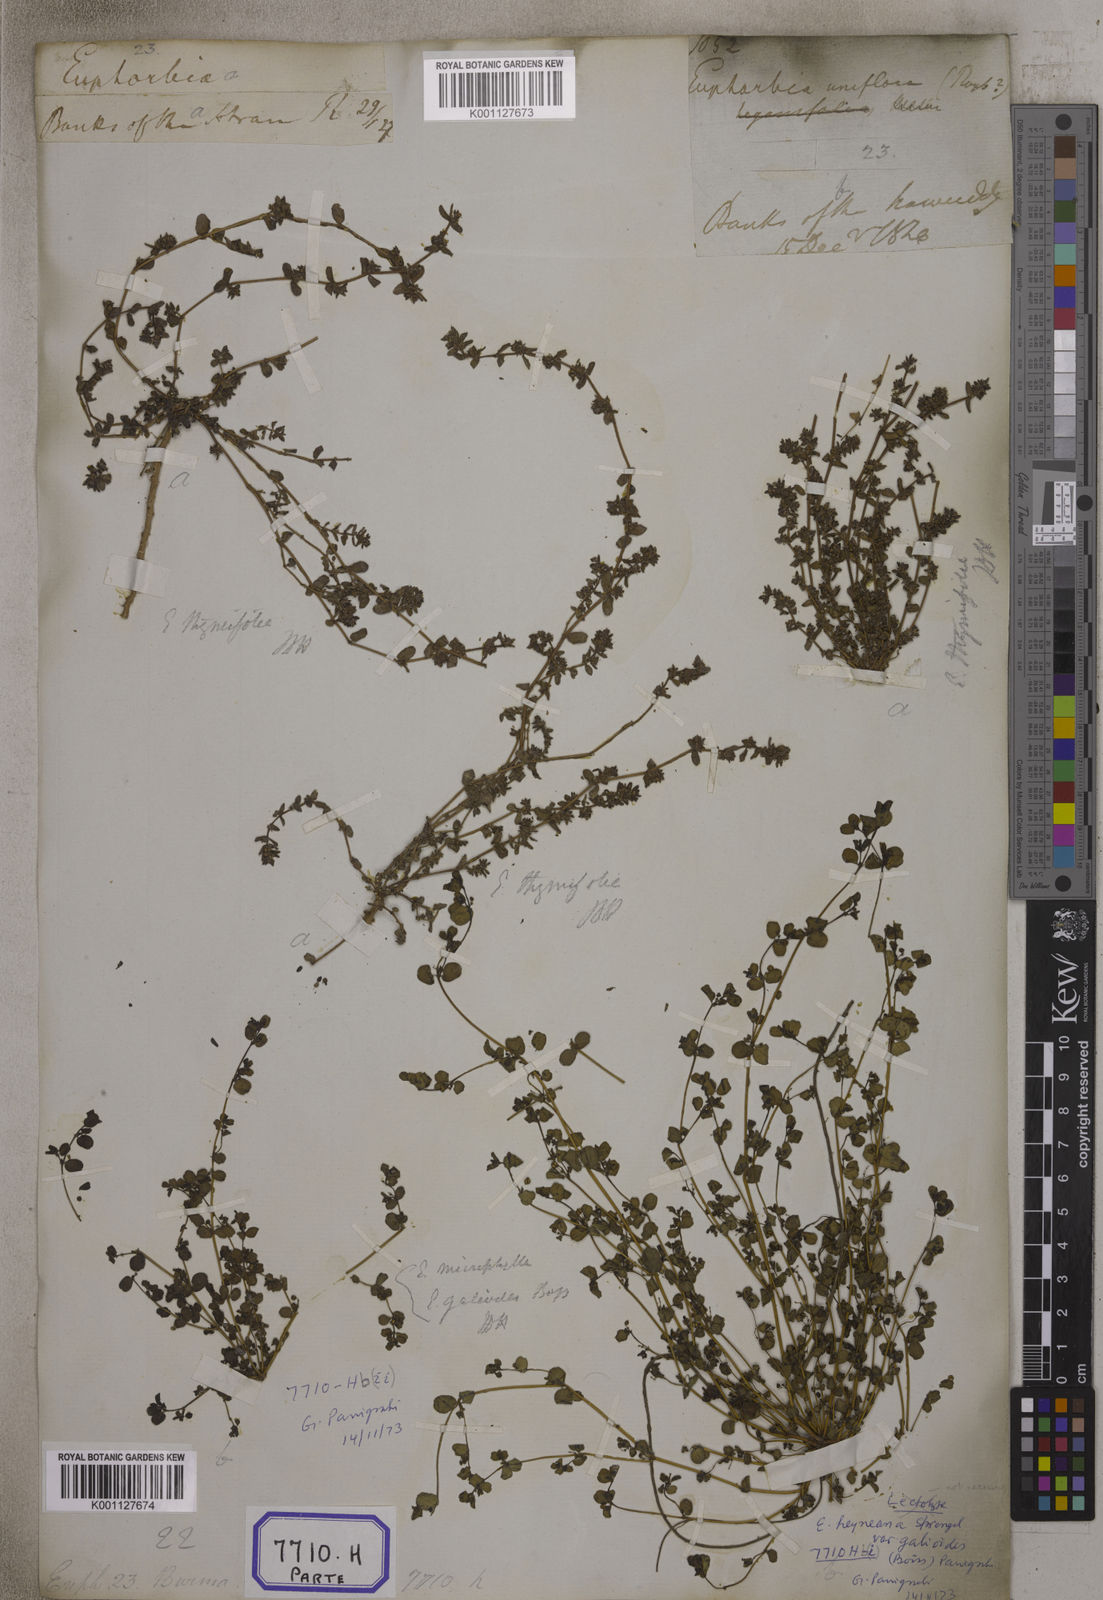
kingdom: Plantae
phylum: Tracheophyta
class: Magnoliopsida
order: Malpighiales
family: Euphorbiaceae
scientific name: Euphorbiaceae
